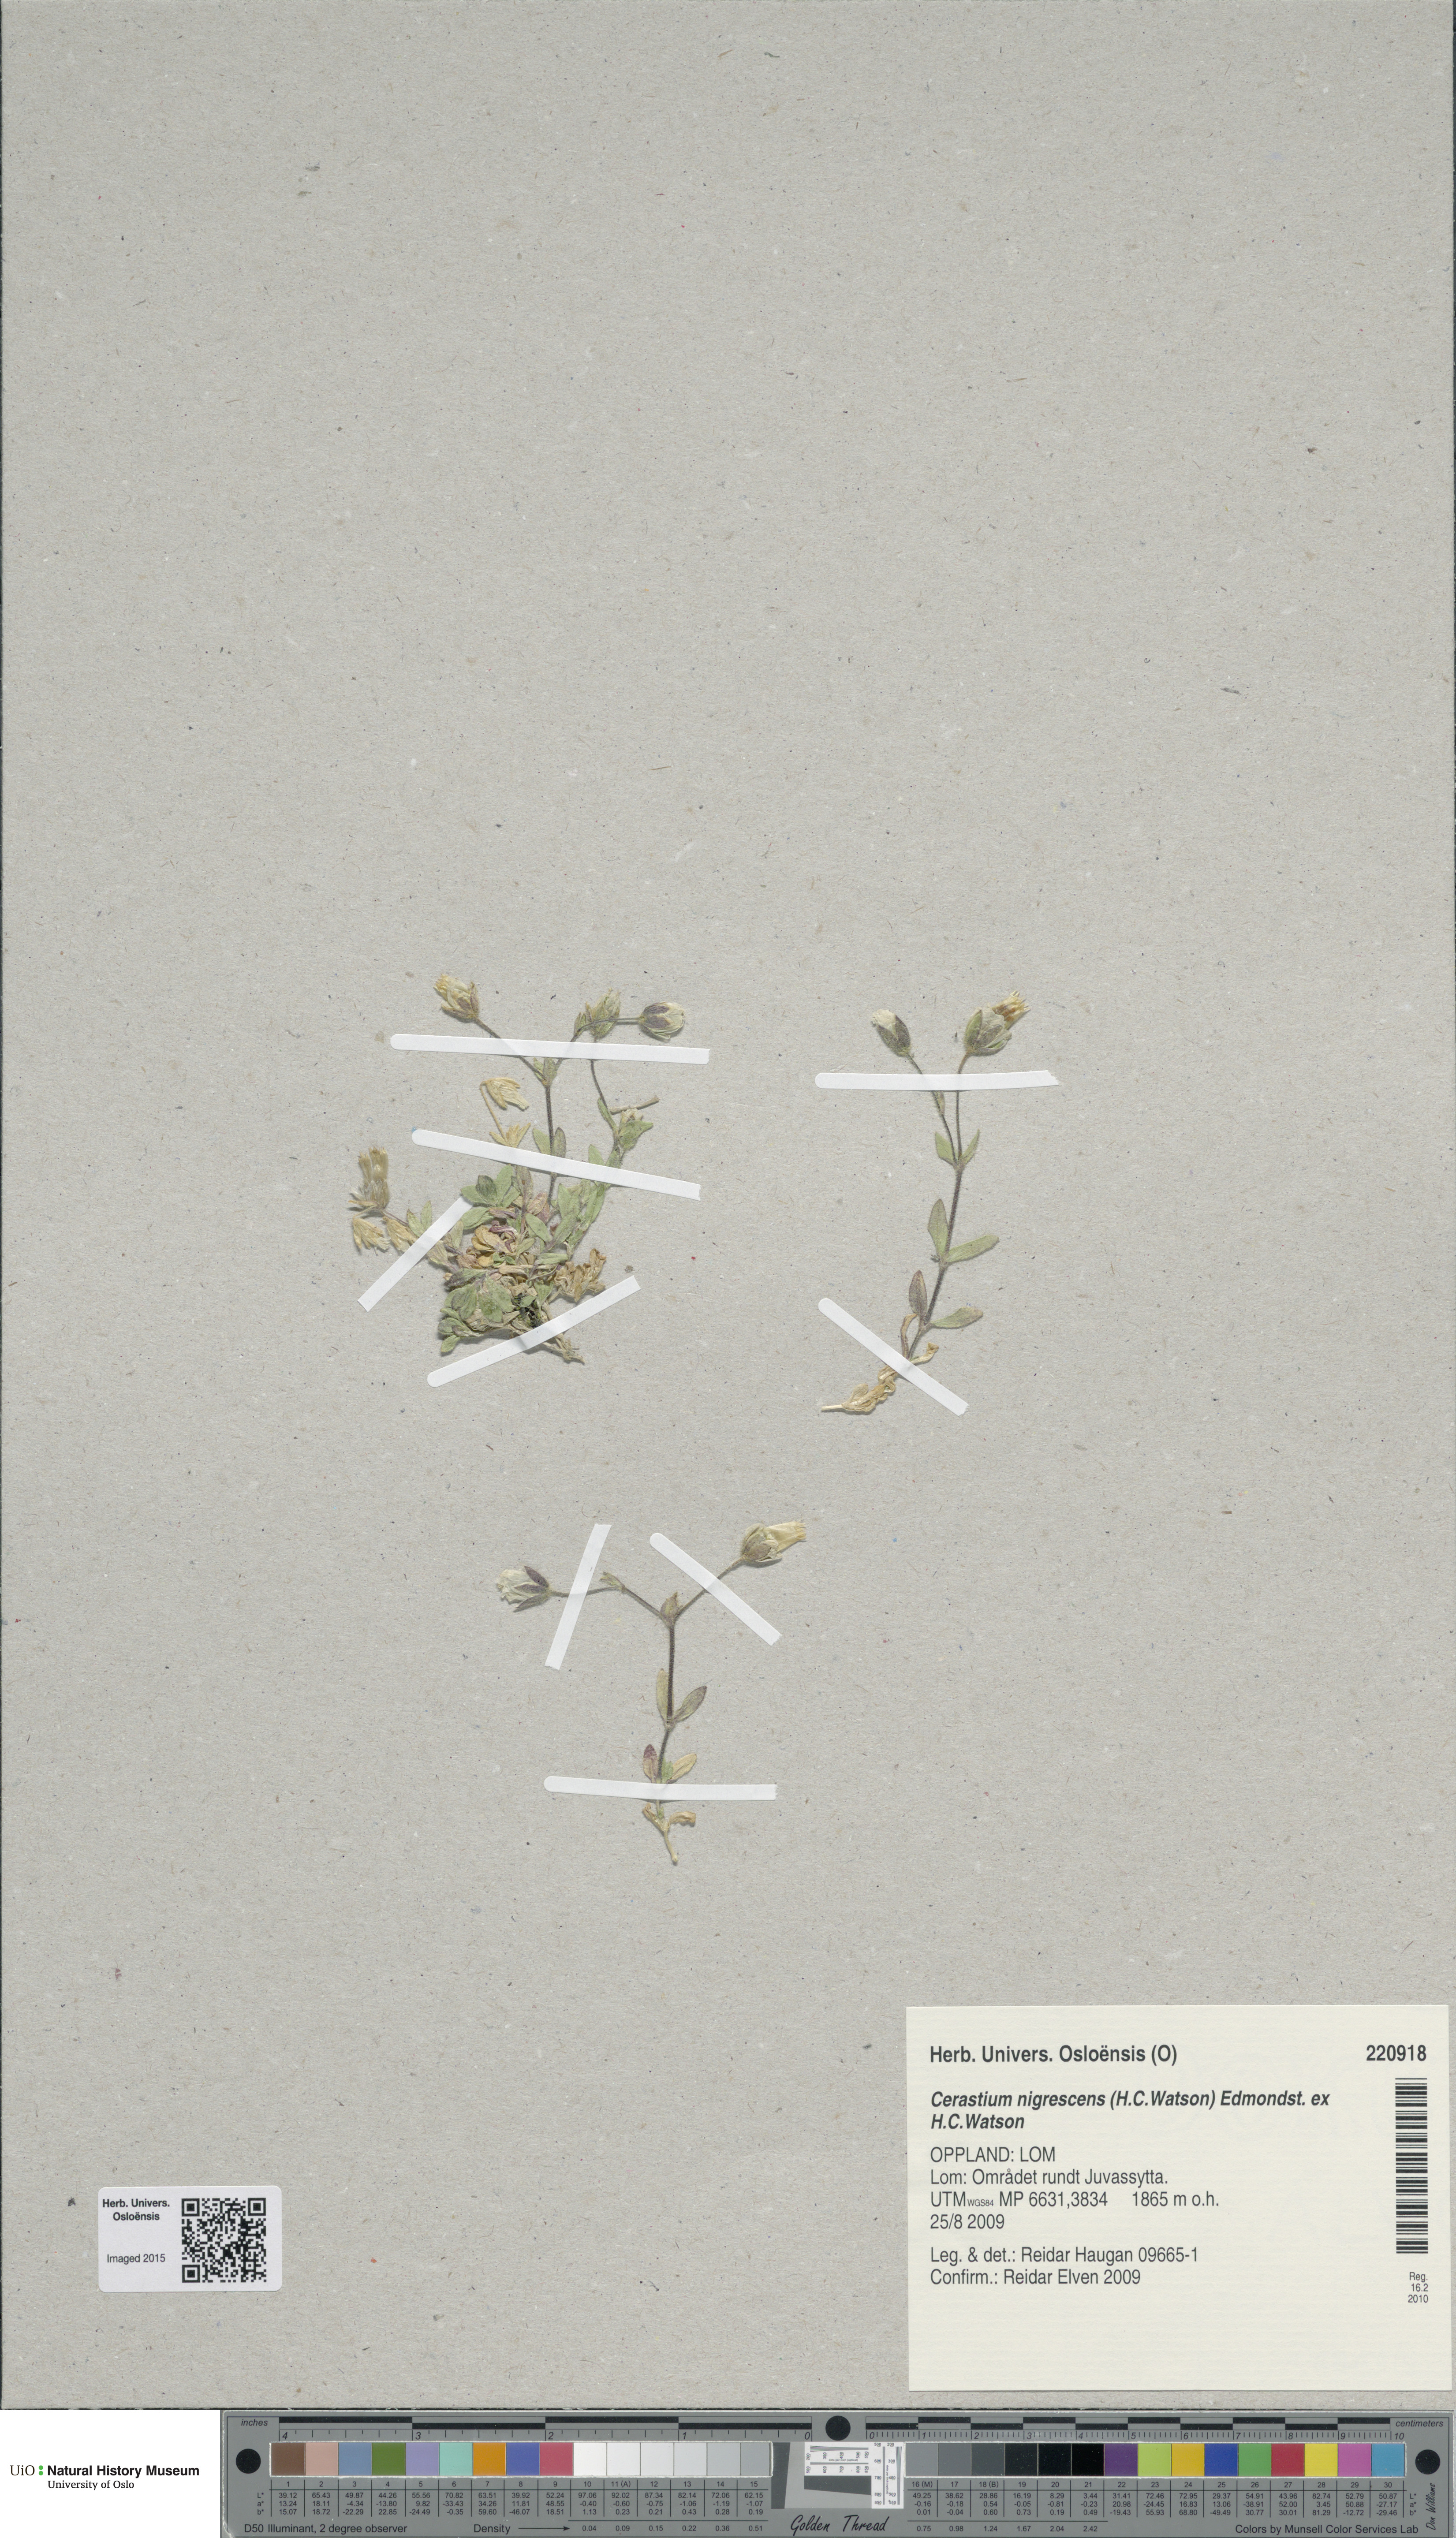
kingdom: Plantae
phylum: Tracheophyta
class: Magnoliopsida
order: Caryophyllales
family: Caryophyllaceae
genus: Cerastium
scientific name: Cerastium nigrescens
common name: Shetland mouse-ear
